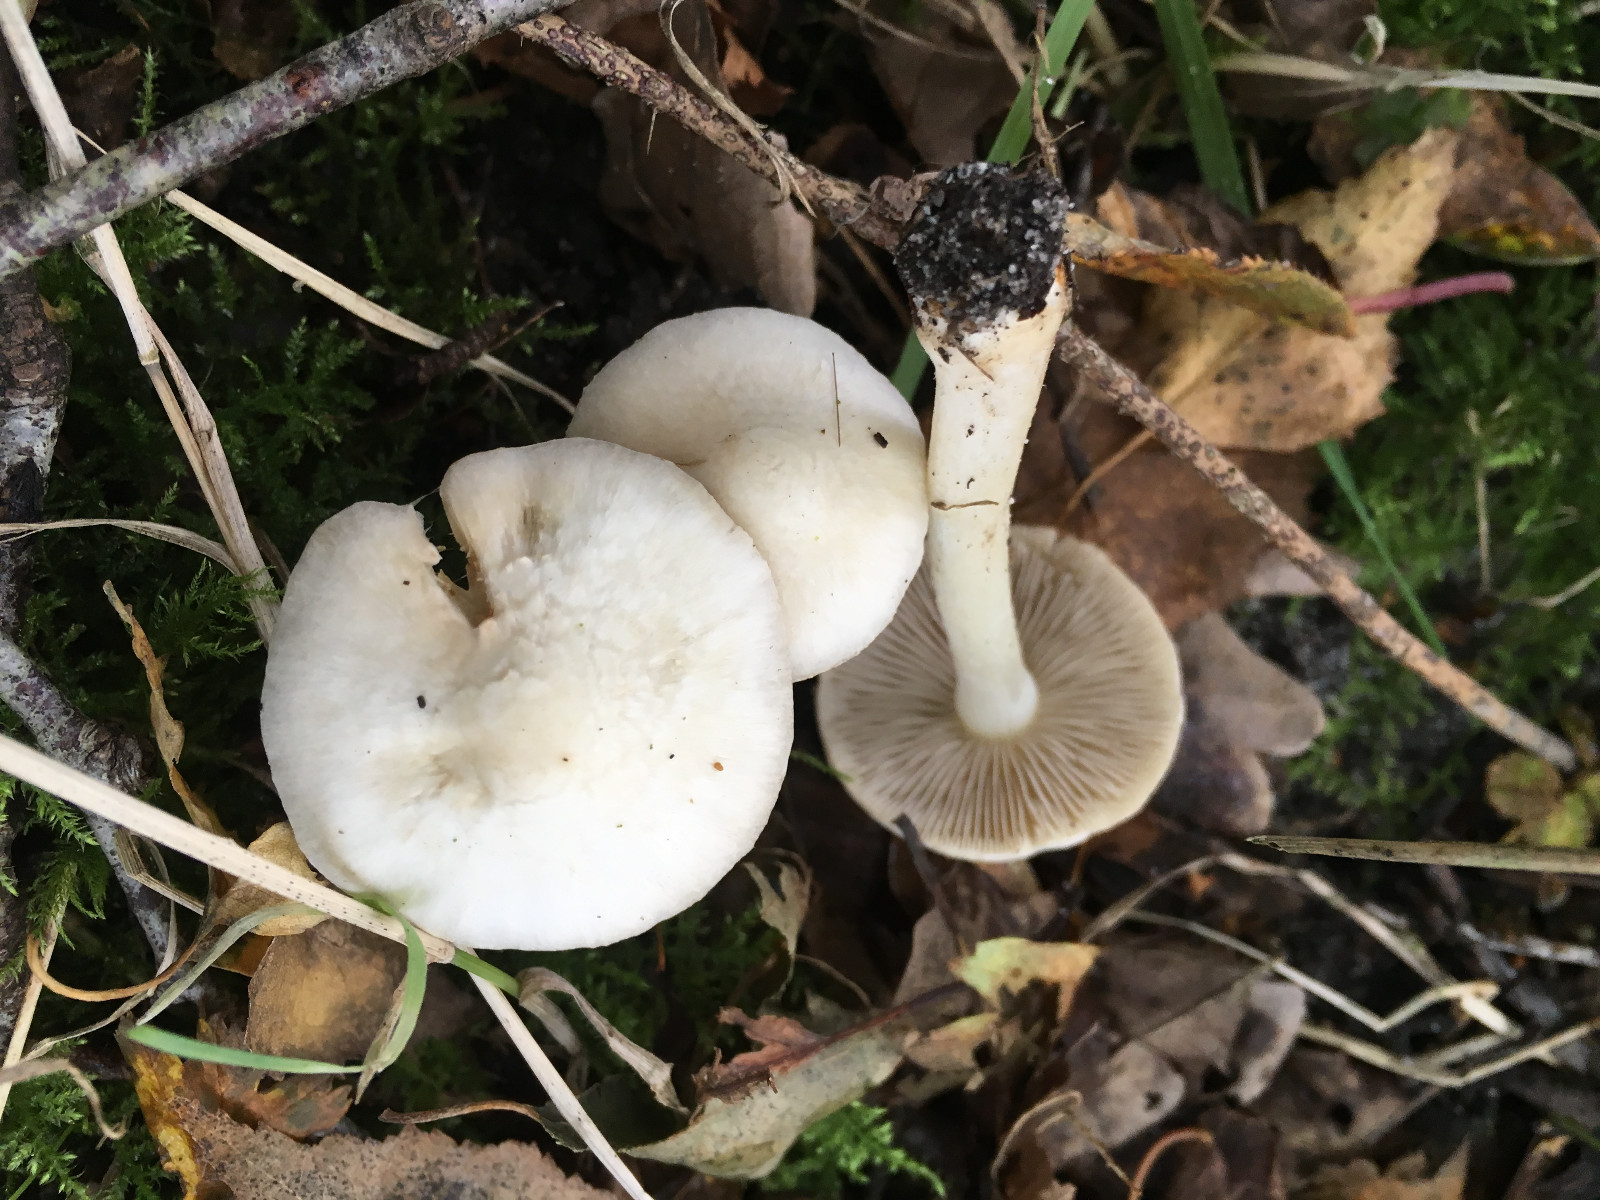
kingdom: Fungi
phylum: Basidiomycota
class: Agaricomycetes
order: Agaricales
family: Inocybaceae
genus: Inocybe
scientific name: Inocybe
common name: almindelig trævlhat
